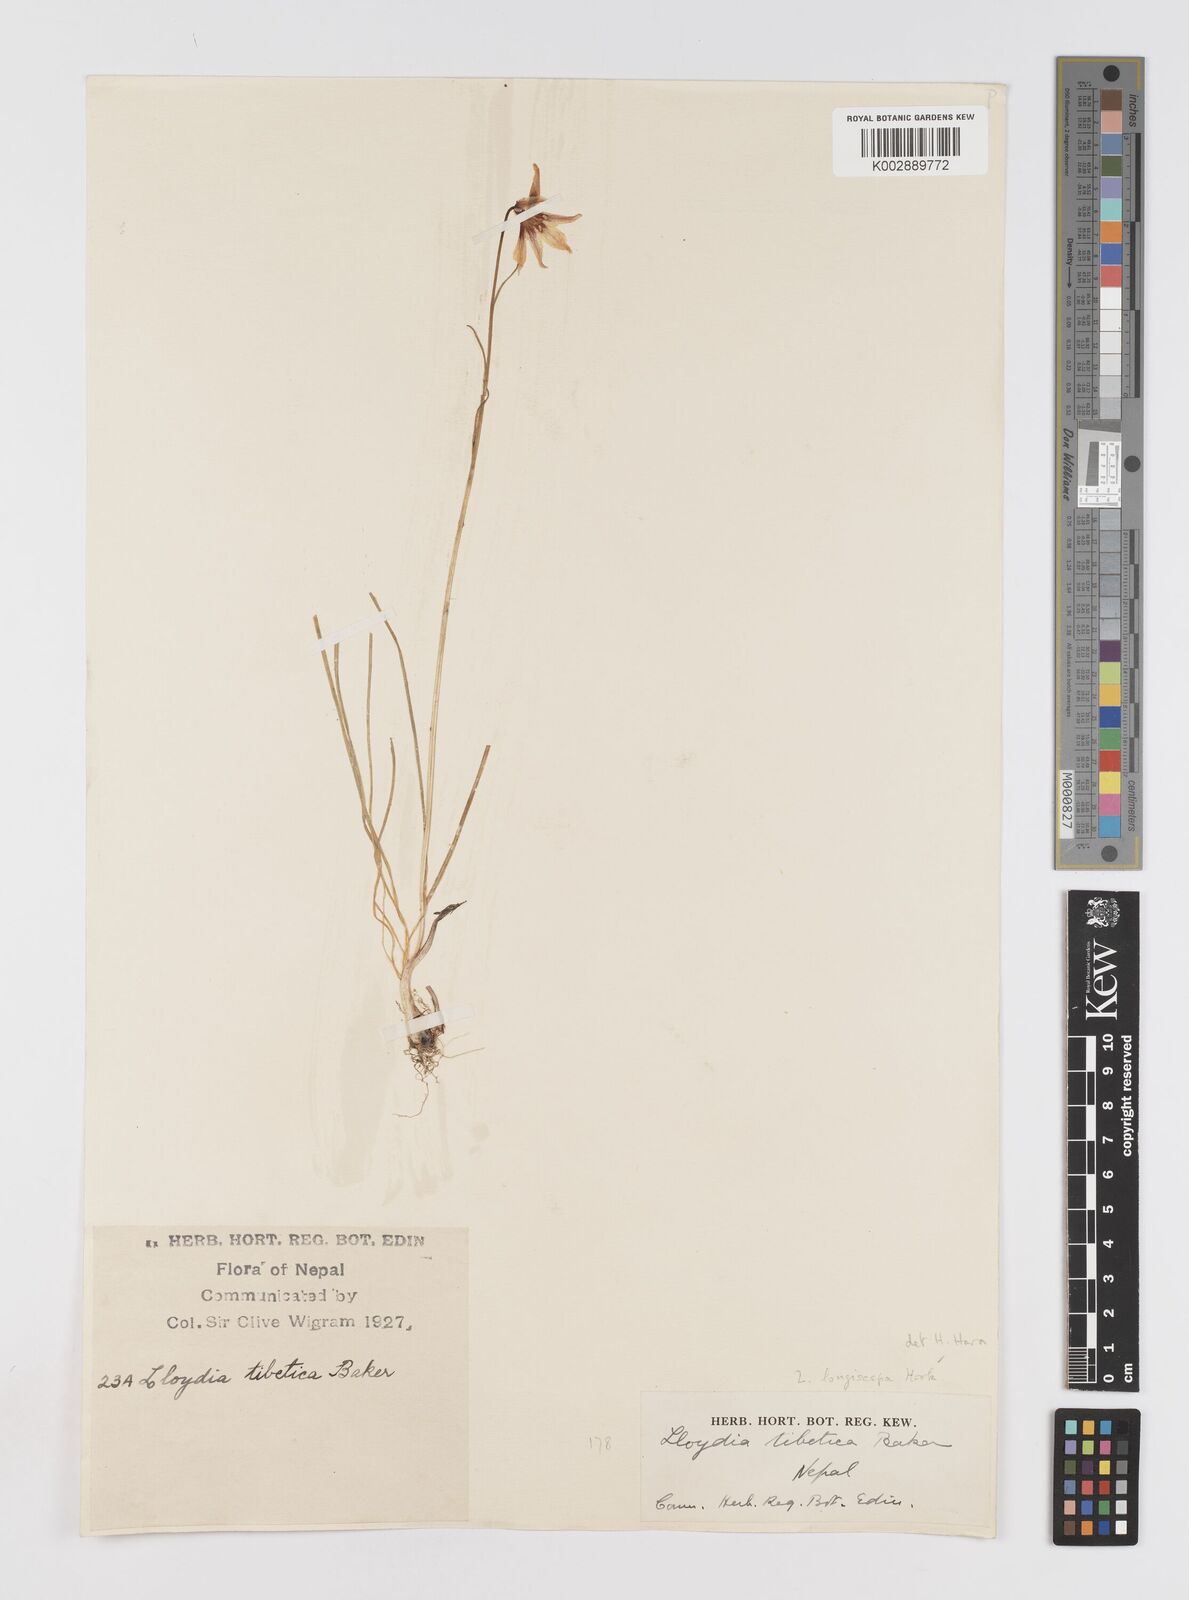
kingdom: Plantae
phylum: Tracheophyta
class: Liliopsida
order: Liliales
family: Liliaceae
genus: Gagea
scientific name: Gagea longiscapa
